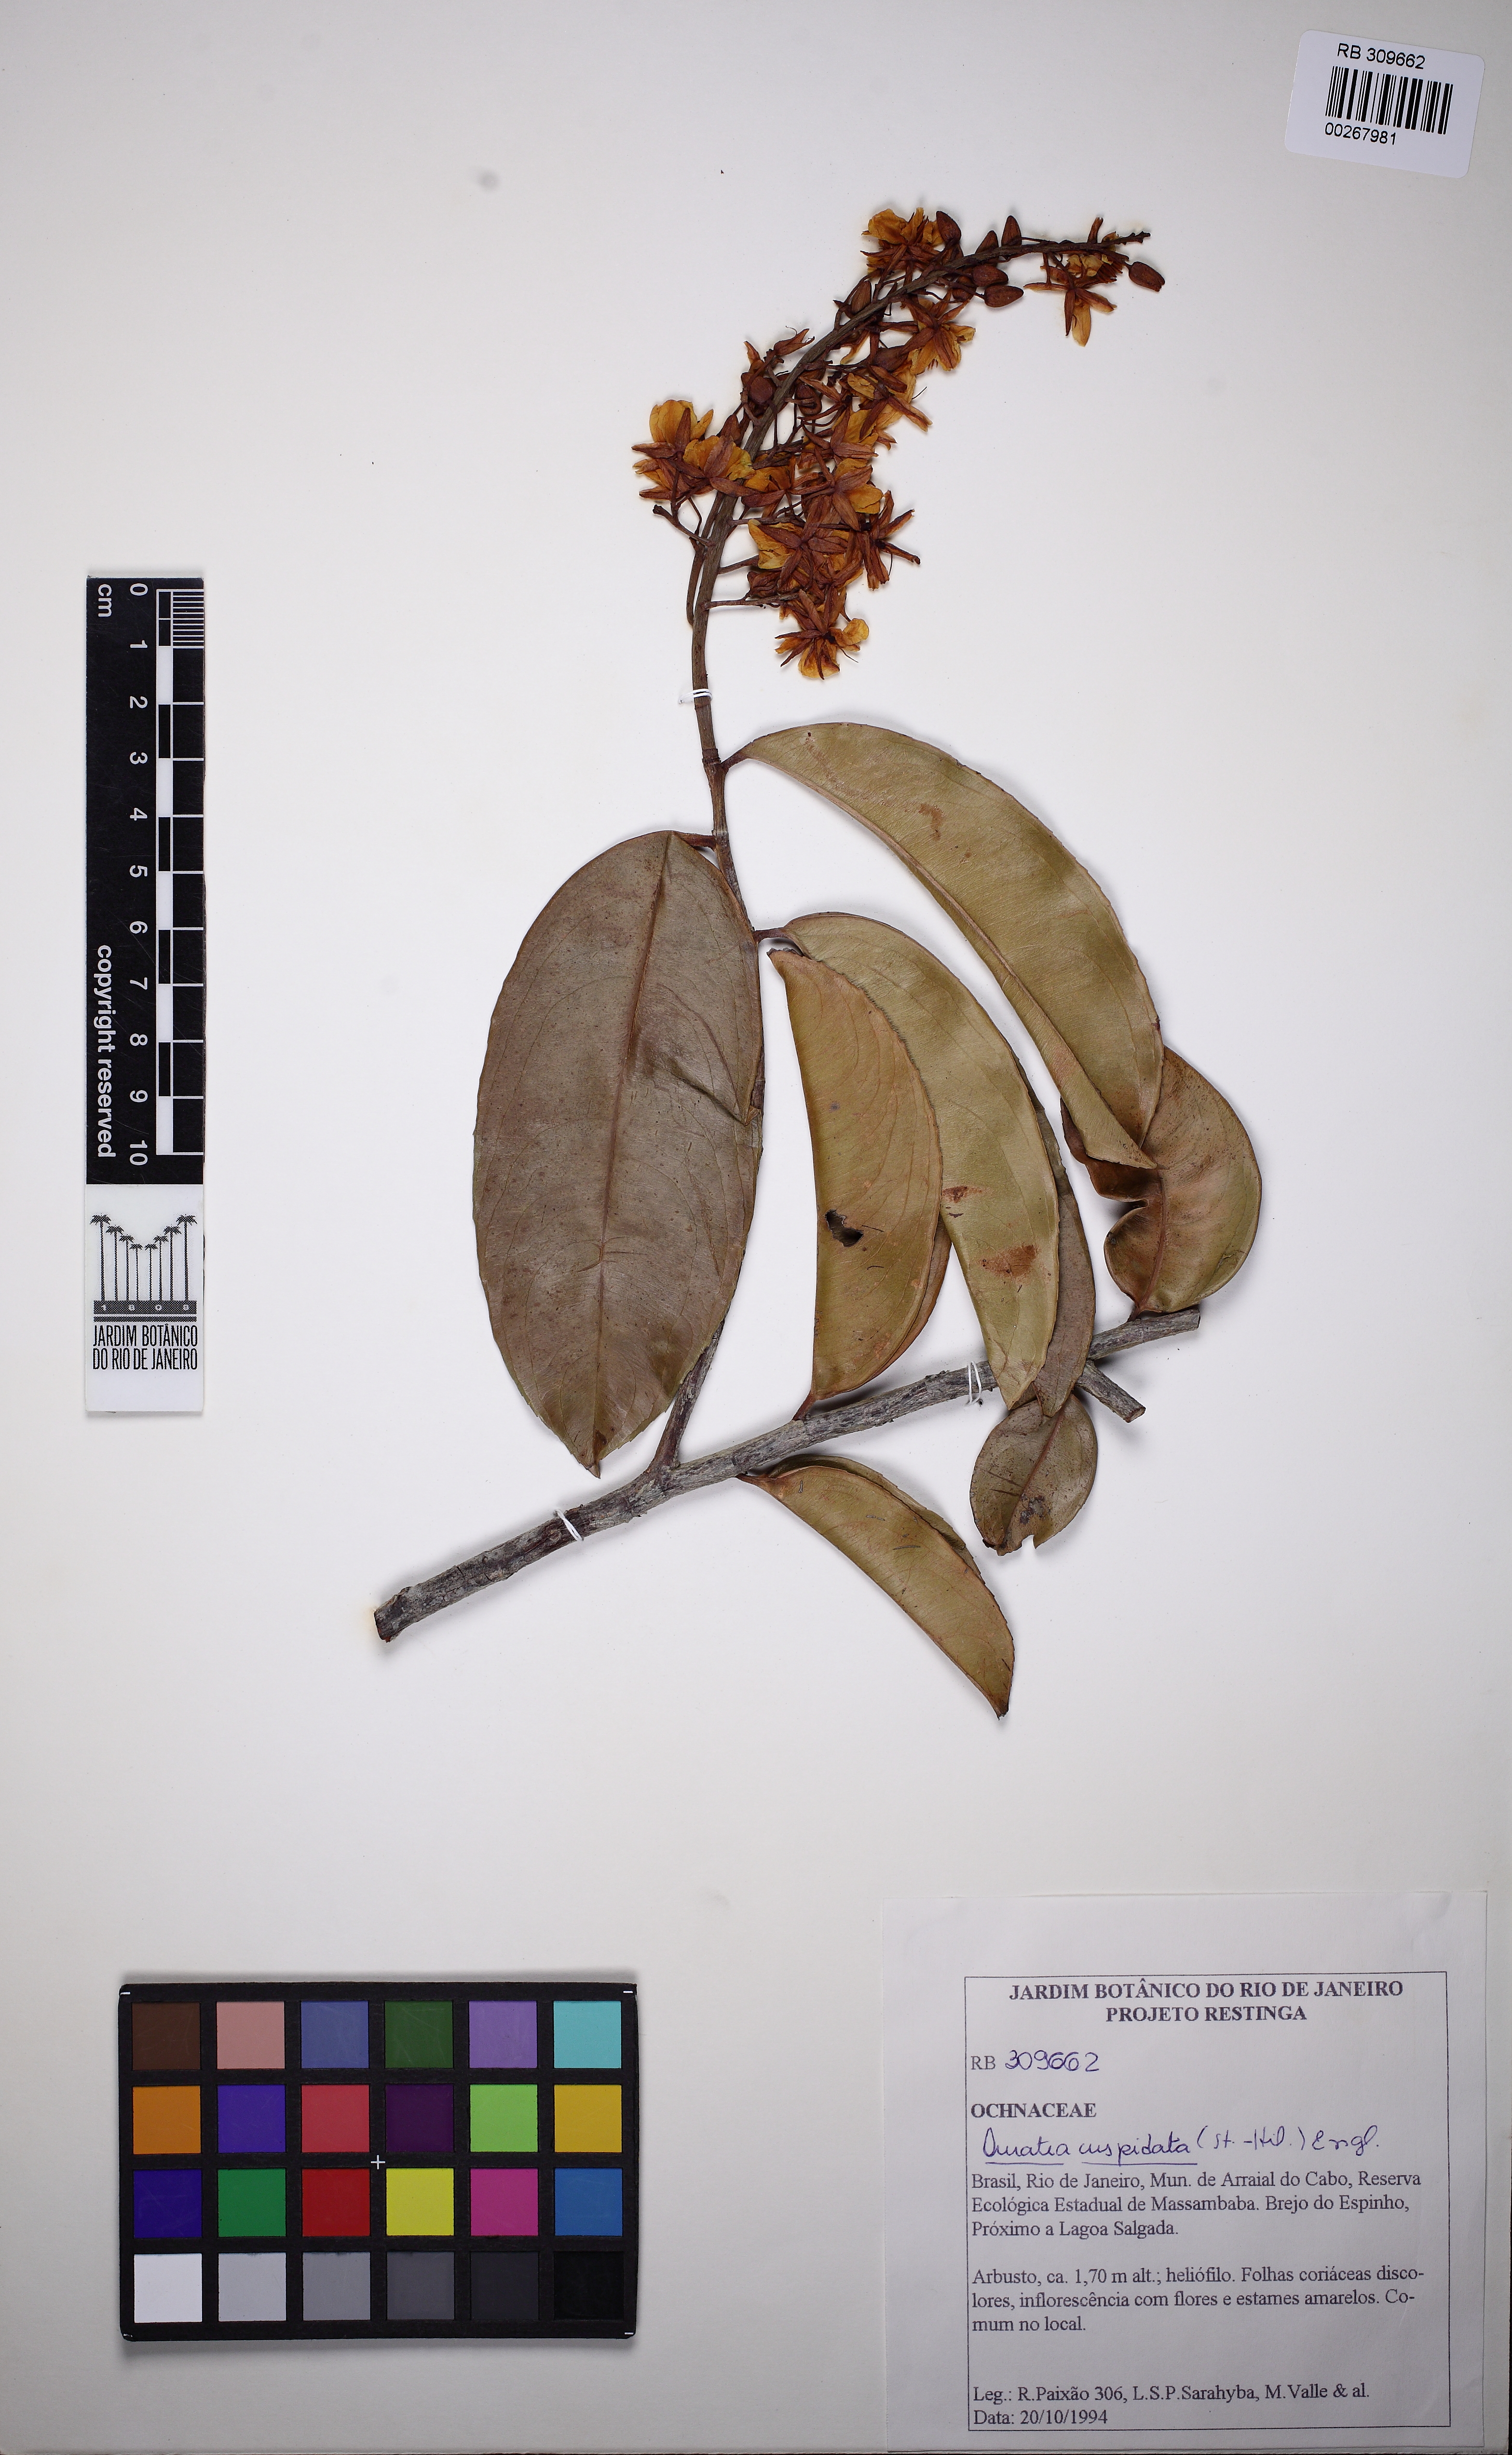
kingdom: Plantae
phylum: Tracheophyta
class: Magnoliopsida
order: Malpighiales
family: Ochnaceae
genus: Ouratea
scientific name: Ouratea cuspidata
